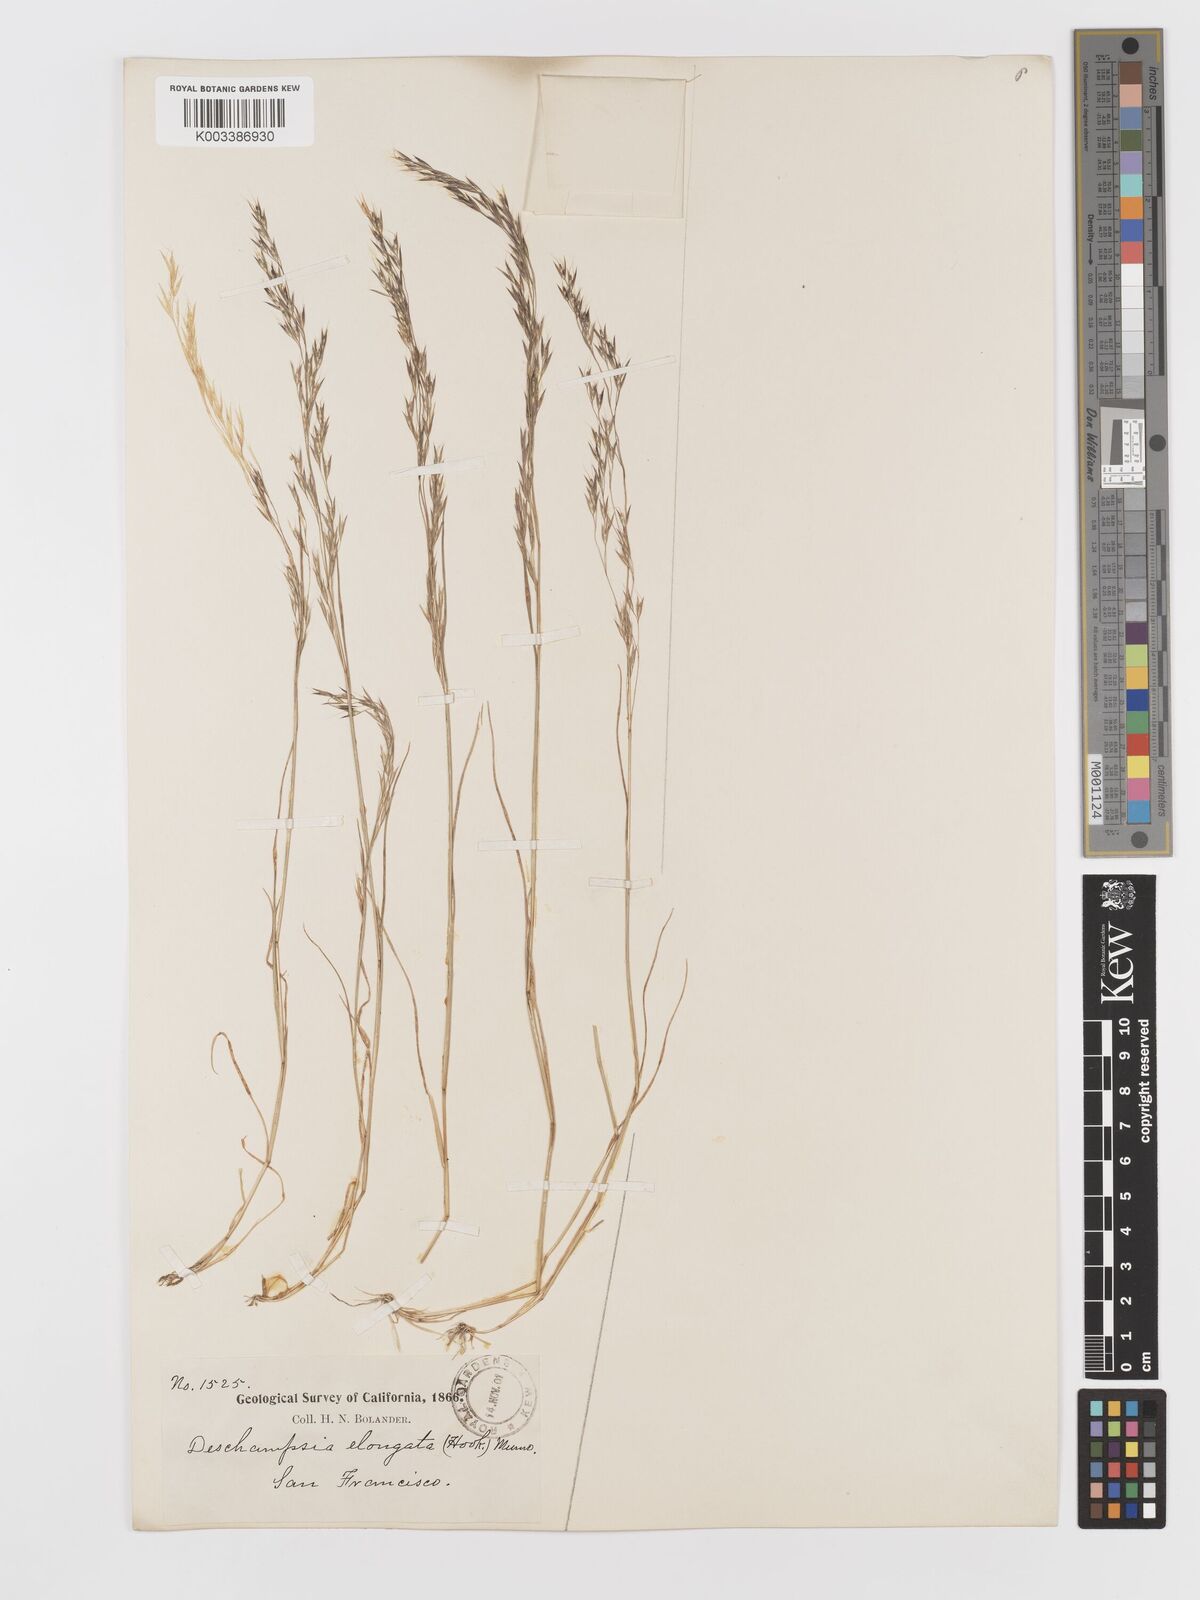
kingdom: Plantae
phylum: Tracheophyta
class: Liliopsida
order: Poales
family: Poaceae
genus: Deschampsia
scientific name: Deschampsia elongata
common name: Slender hairgrass
